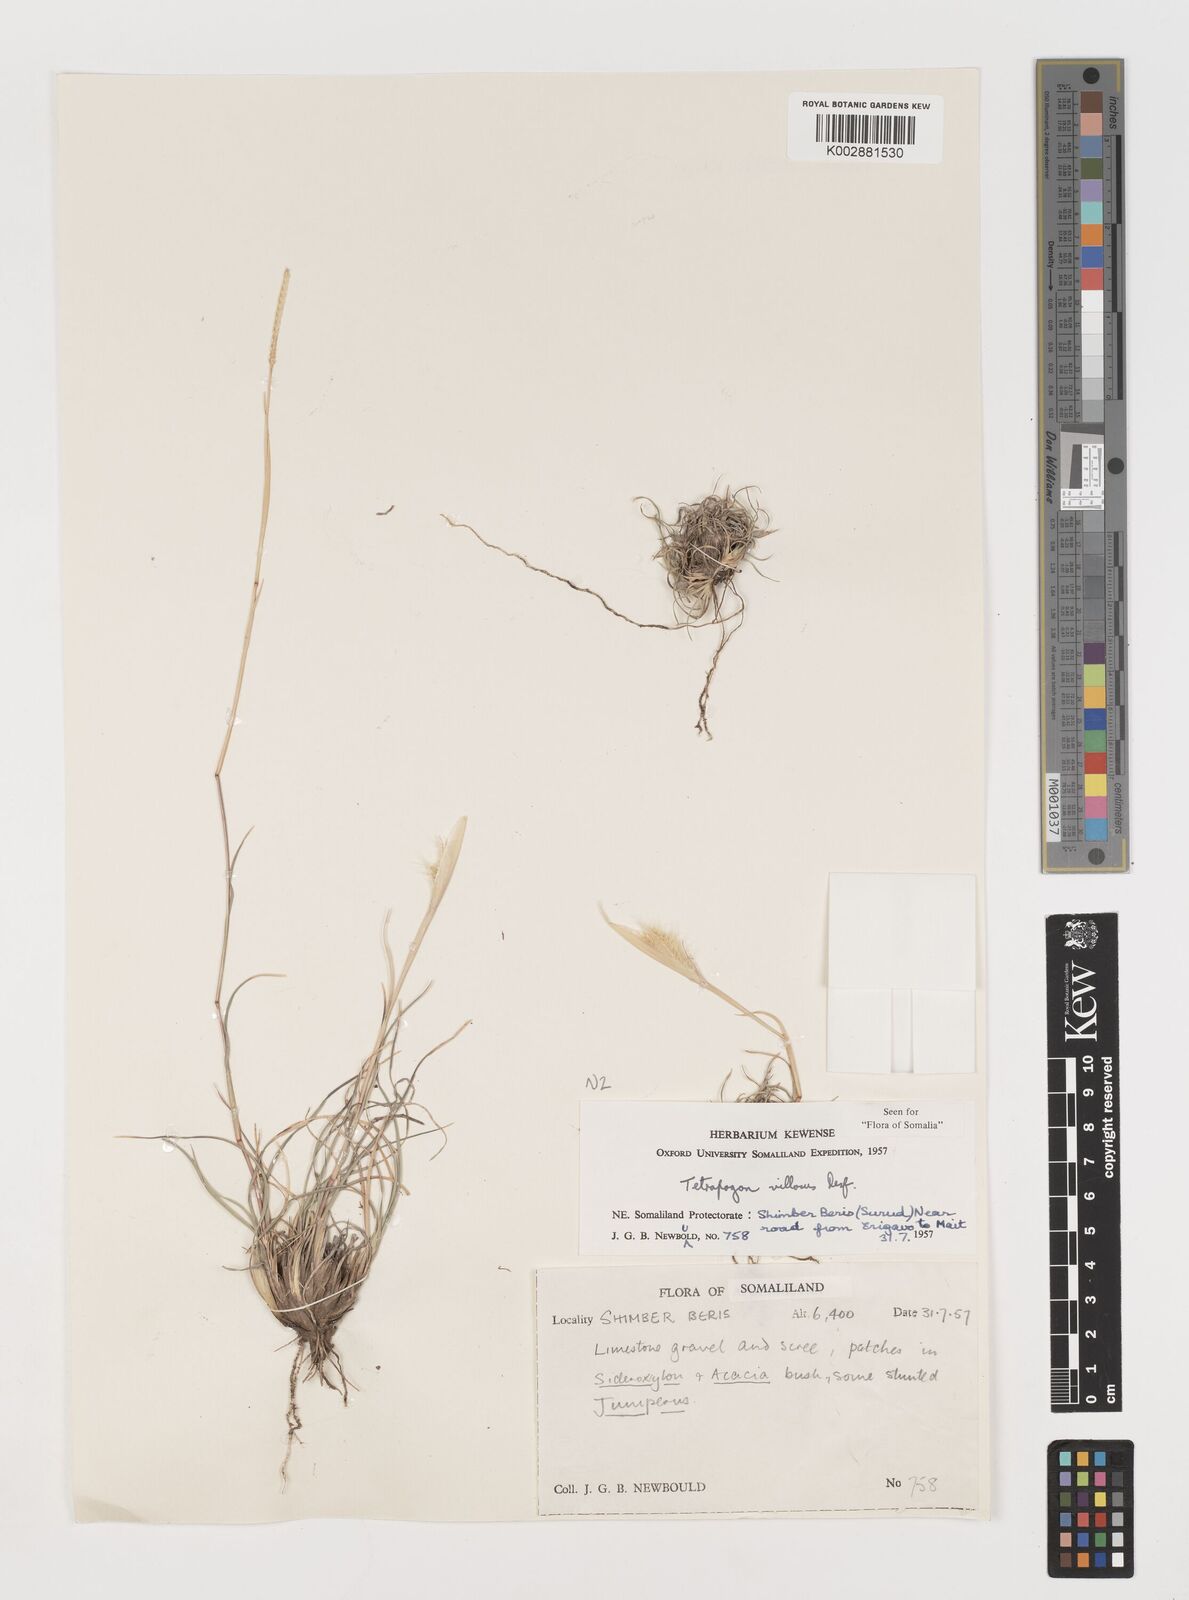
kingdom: Plantae
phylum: Tracheophyta
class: Liliopsida
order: Poales
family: Poaceae
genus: Tetrapogon
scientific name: Tetrapogon villosus
